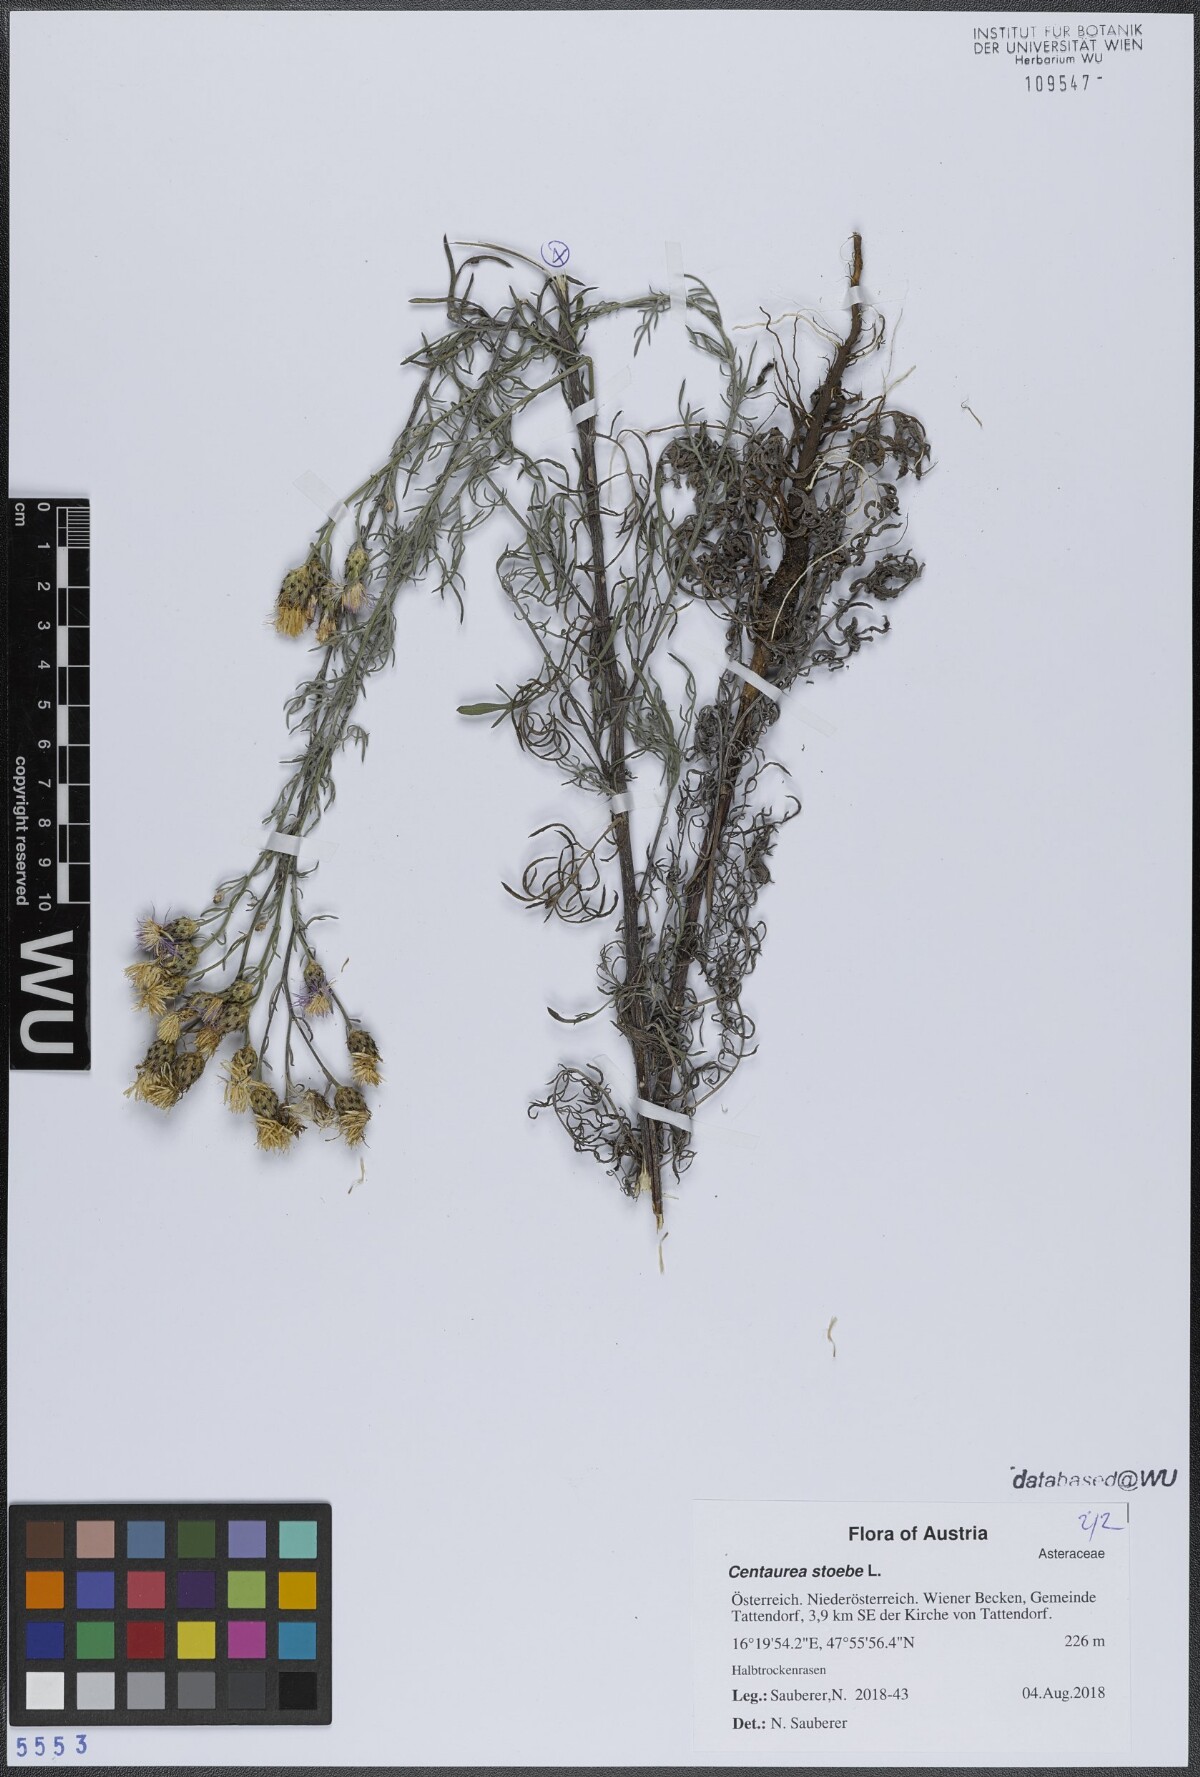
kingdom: Plantae
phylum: Tracheophyta
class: Magnoliopsida
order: Asterales
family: Asteraceae
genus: Centaurea
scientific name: Centaurea stoebe
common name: Spotted knapweed
